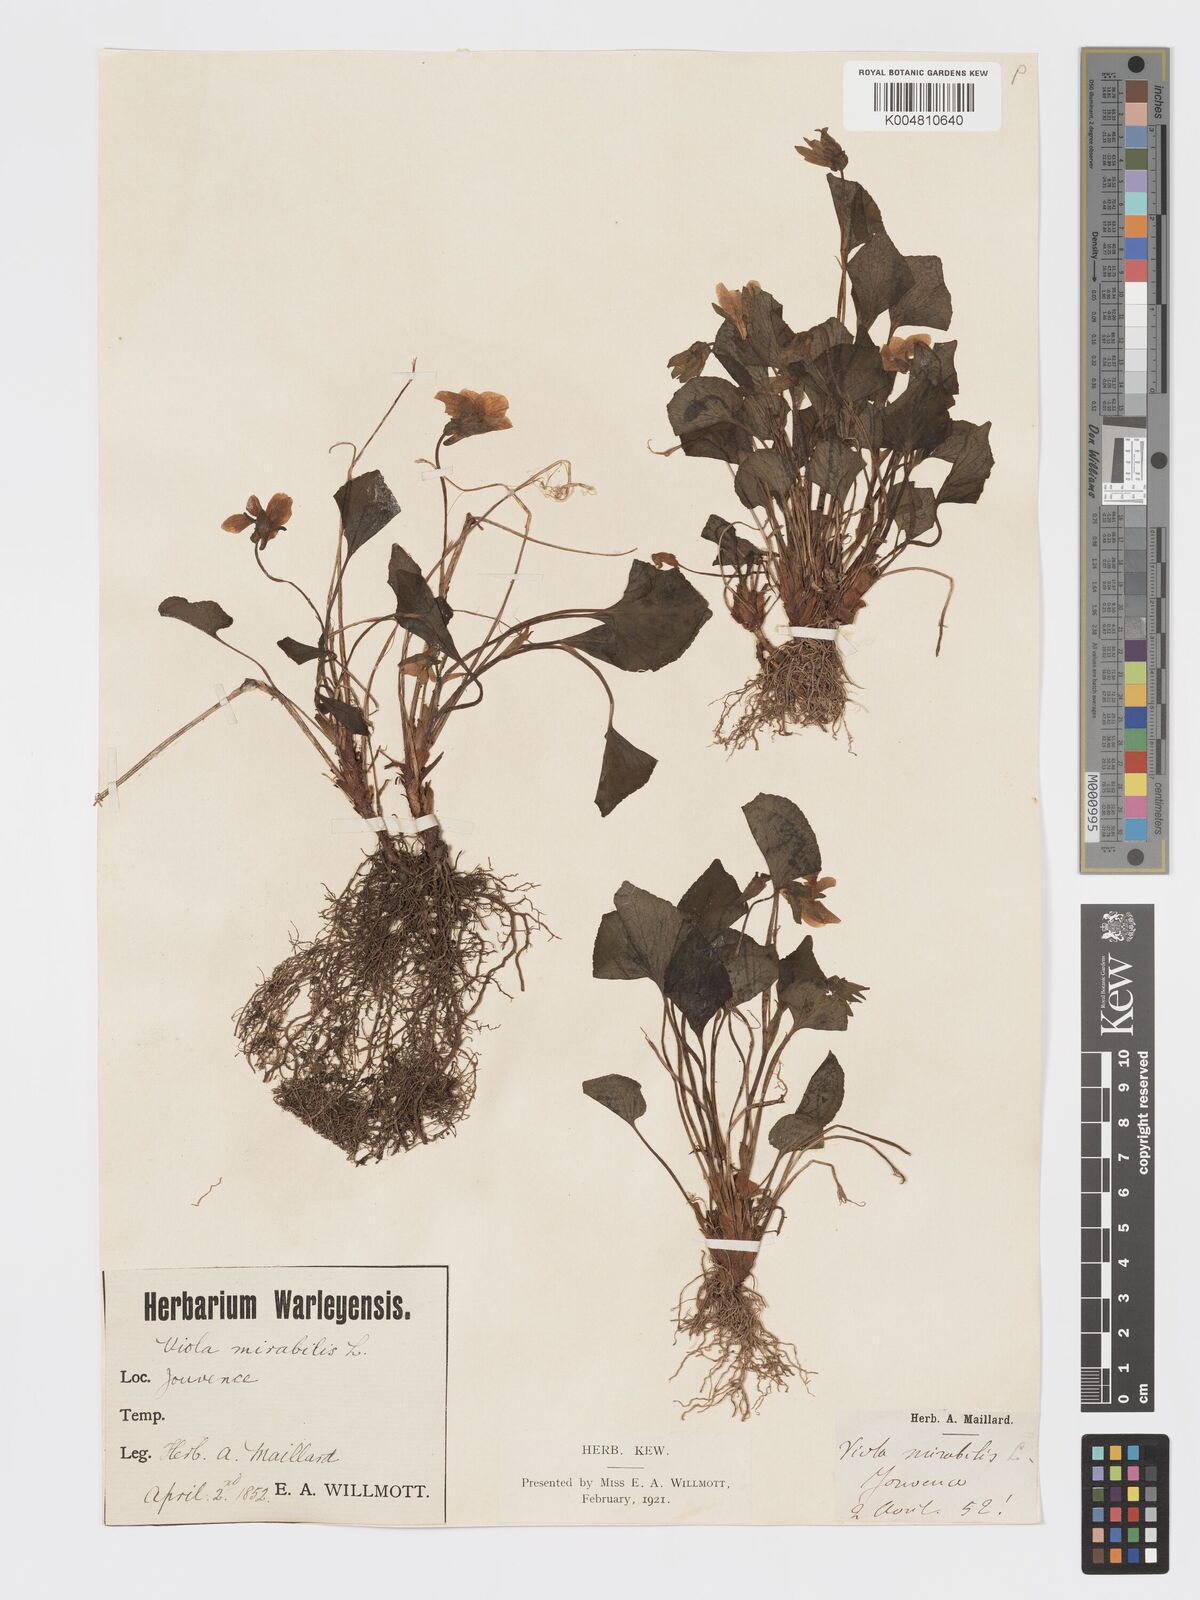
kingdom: Plantae
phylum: Tracheophyta
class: Magnoliopsida
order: Malpighiales
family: Violaceae
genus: Viola
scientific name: Viola mirabilis
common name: Wonder violet
